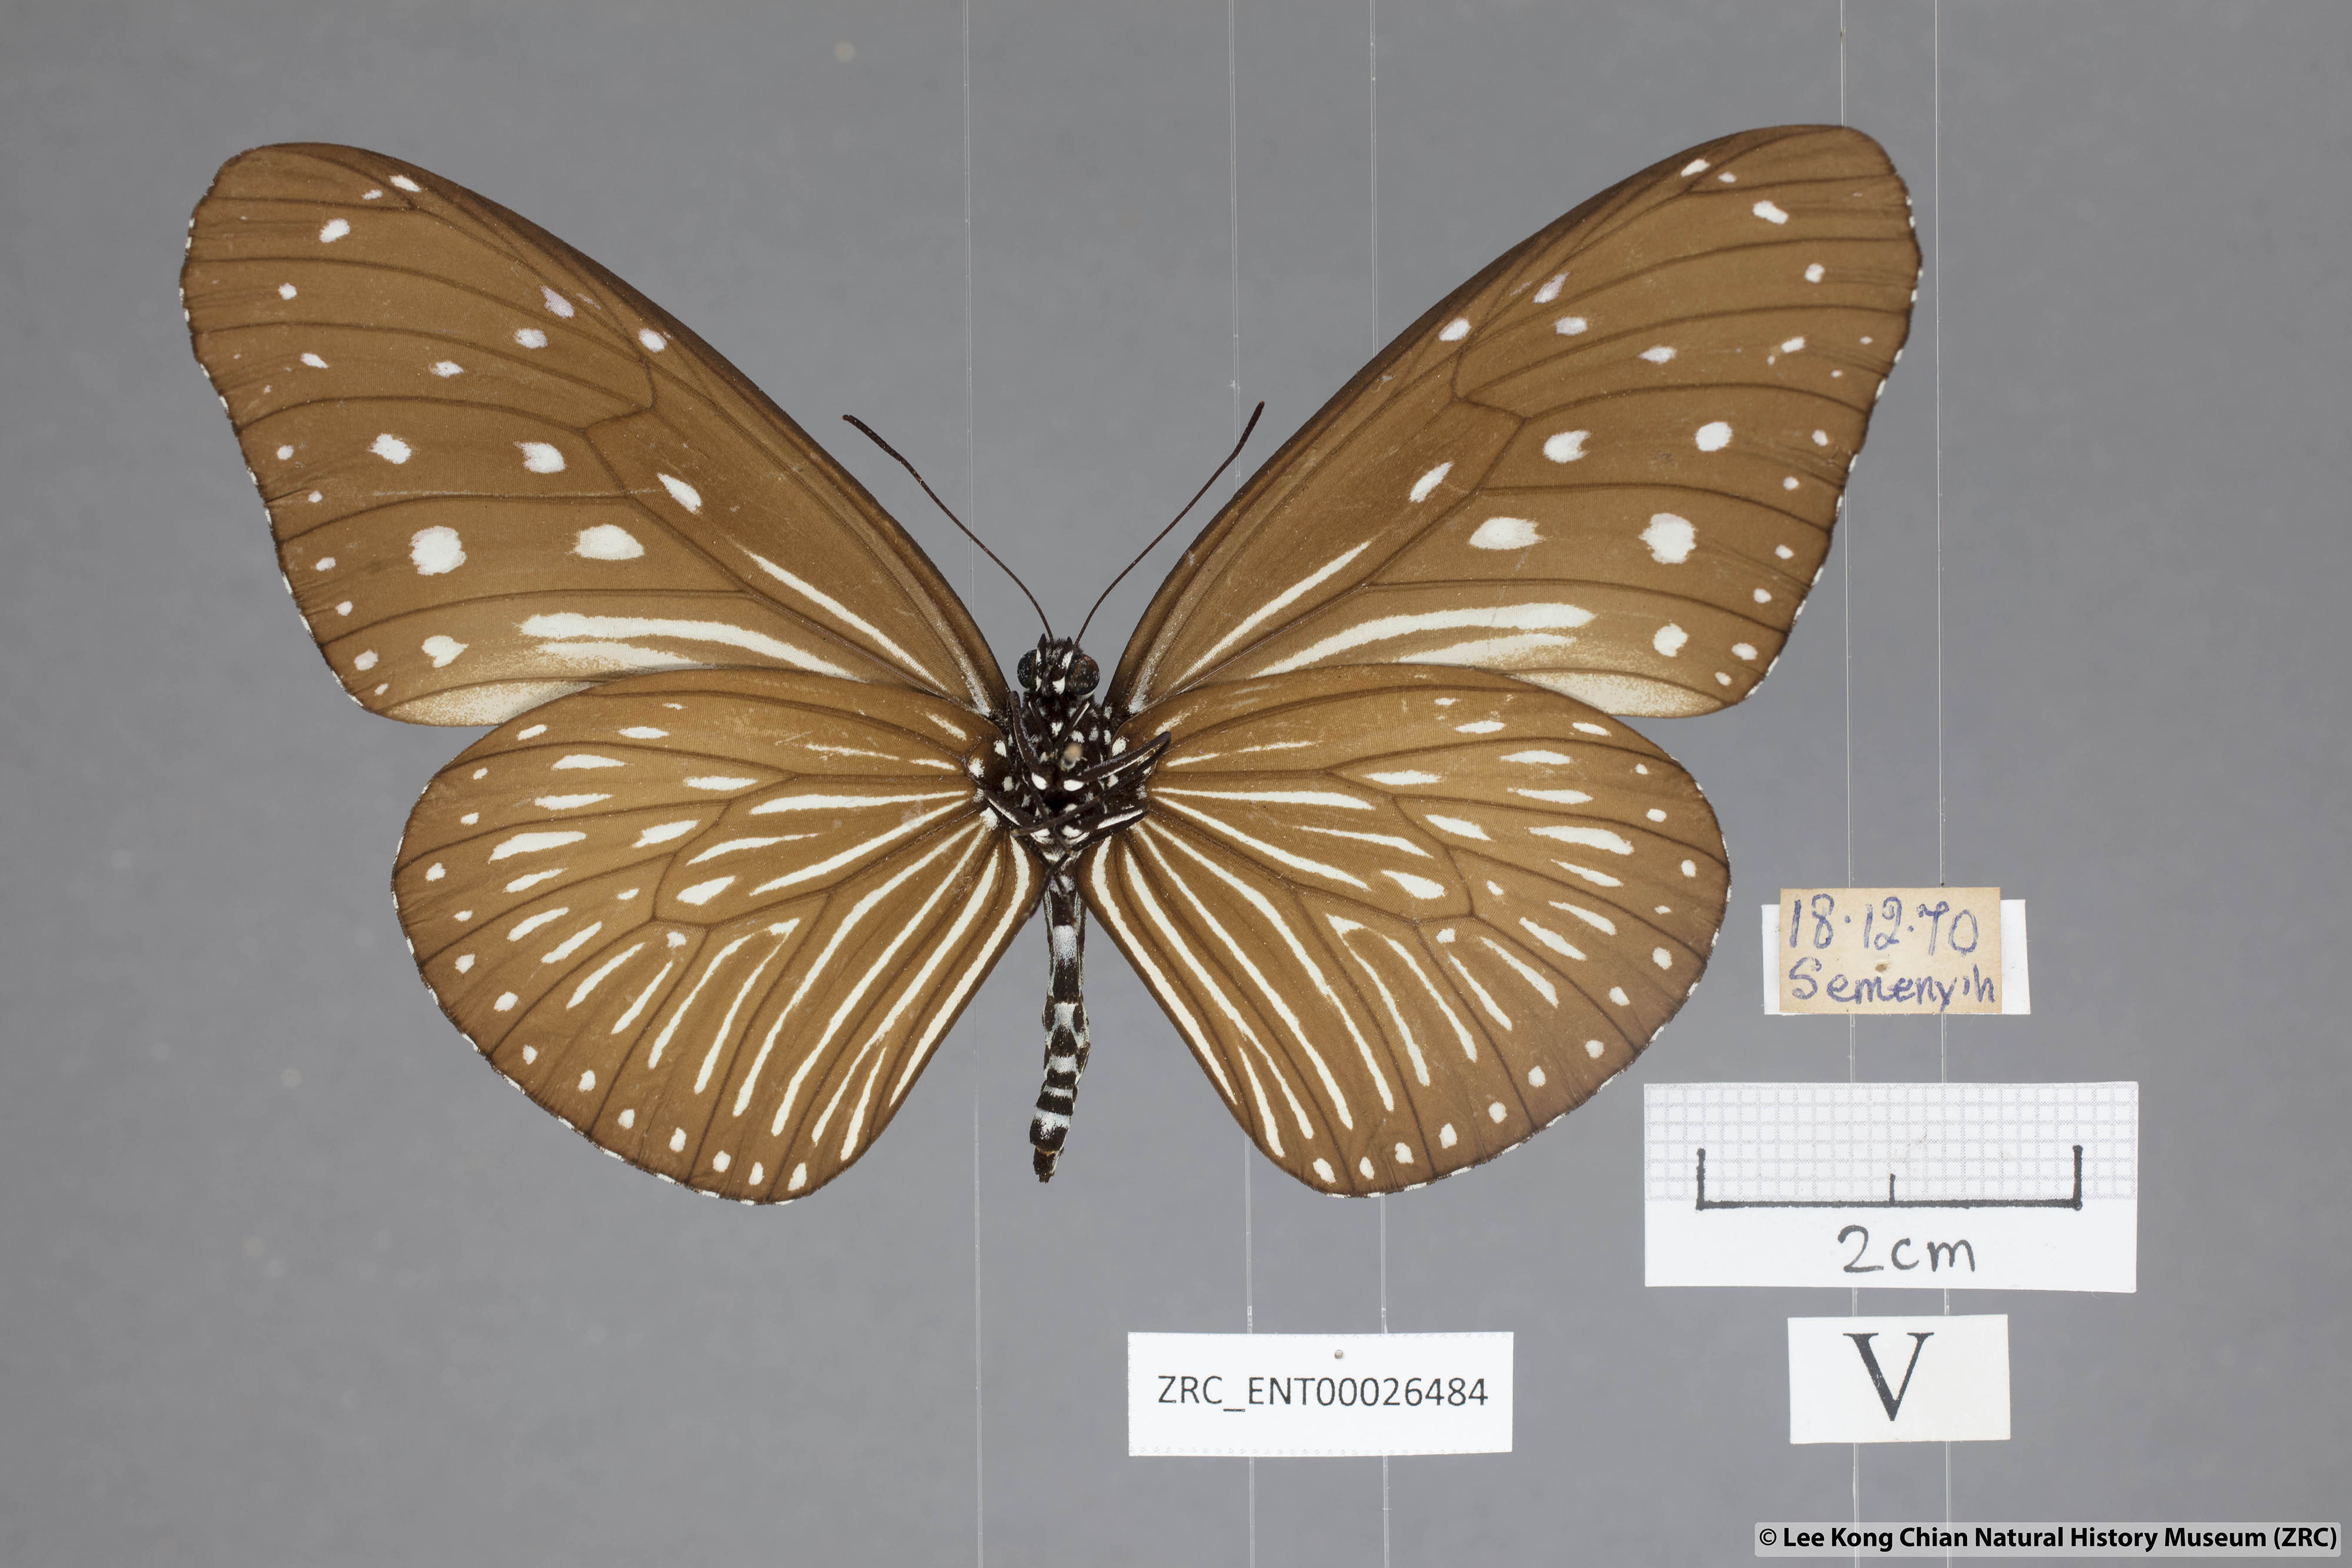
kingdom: Animalia
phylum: Arthropoda
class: Insecta
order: Lepidoptera
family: Nymphalidae
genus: Euploea
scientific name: Euploea mulciber
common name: Striped blue crow butterfly
